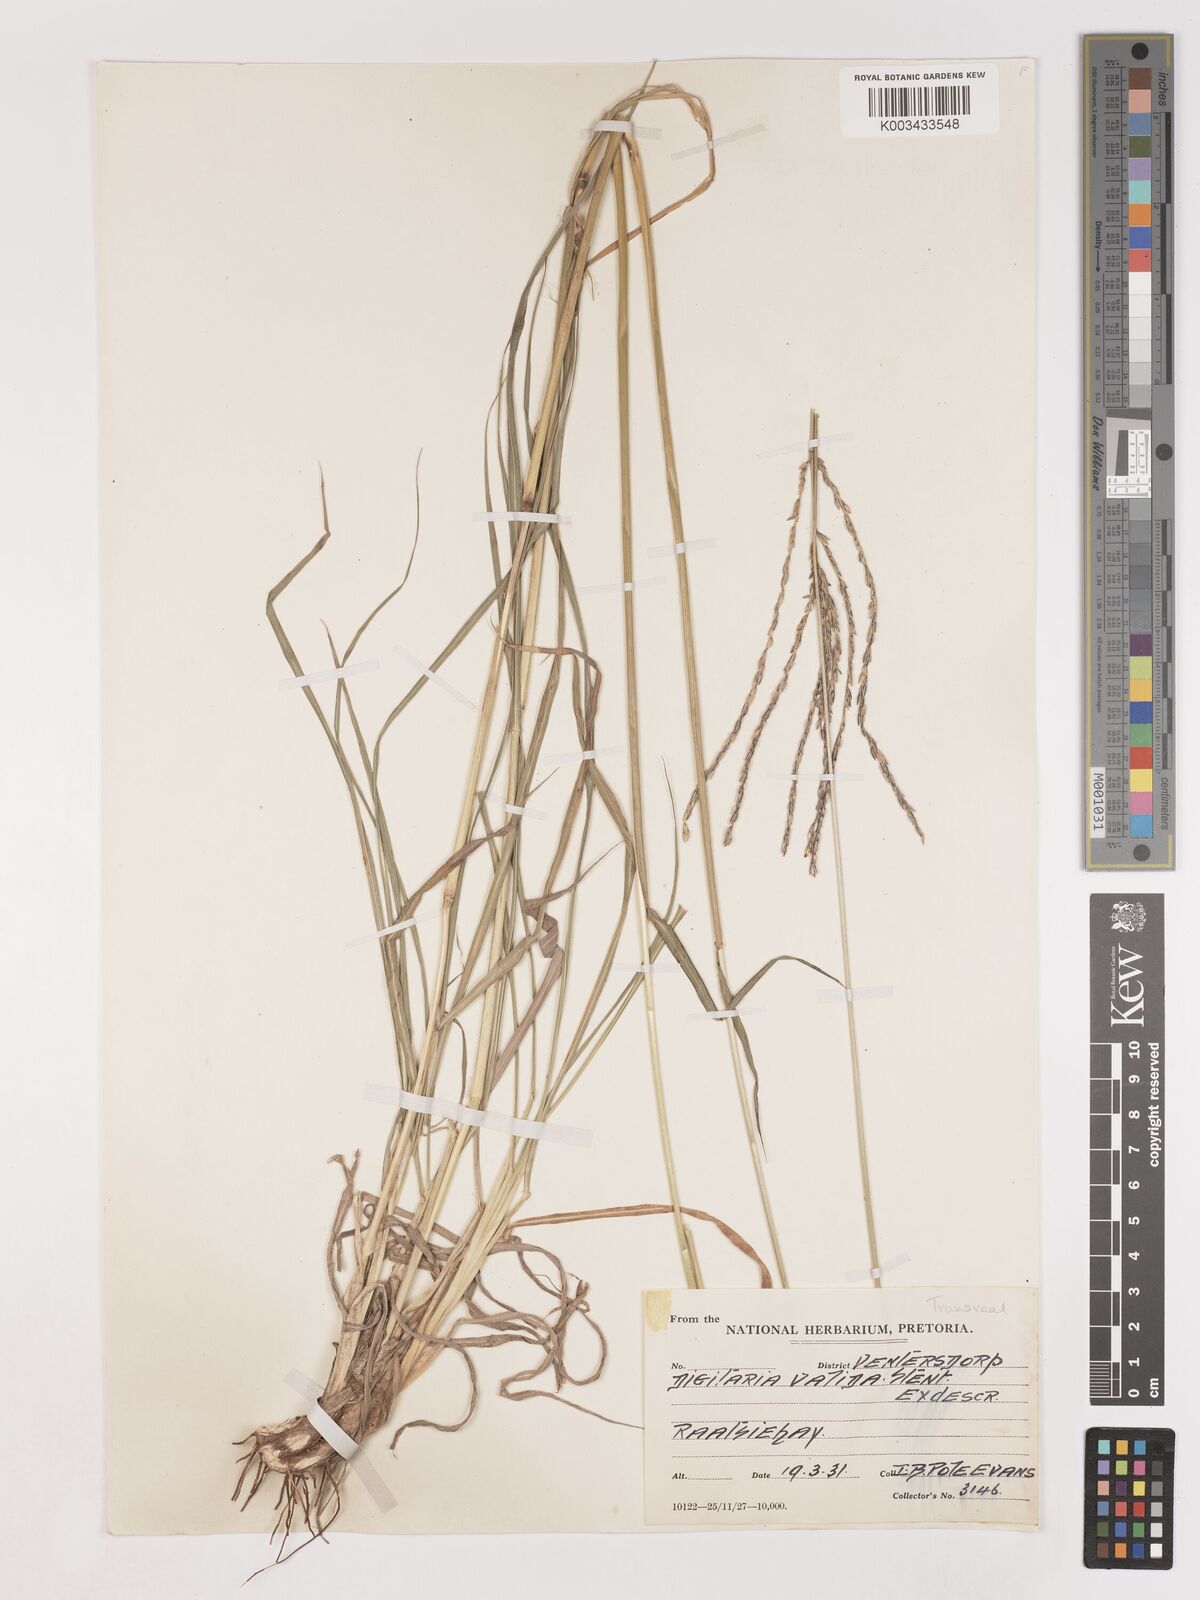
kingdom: Plantae
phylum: Tracheophyta
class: Liliopsida
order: Poales
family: Poaceae
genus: Digitaria
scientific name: Digitaria eriantha
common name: Digitgrass
